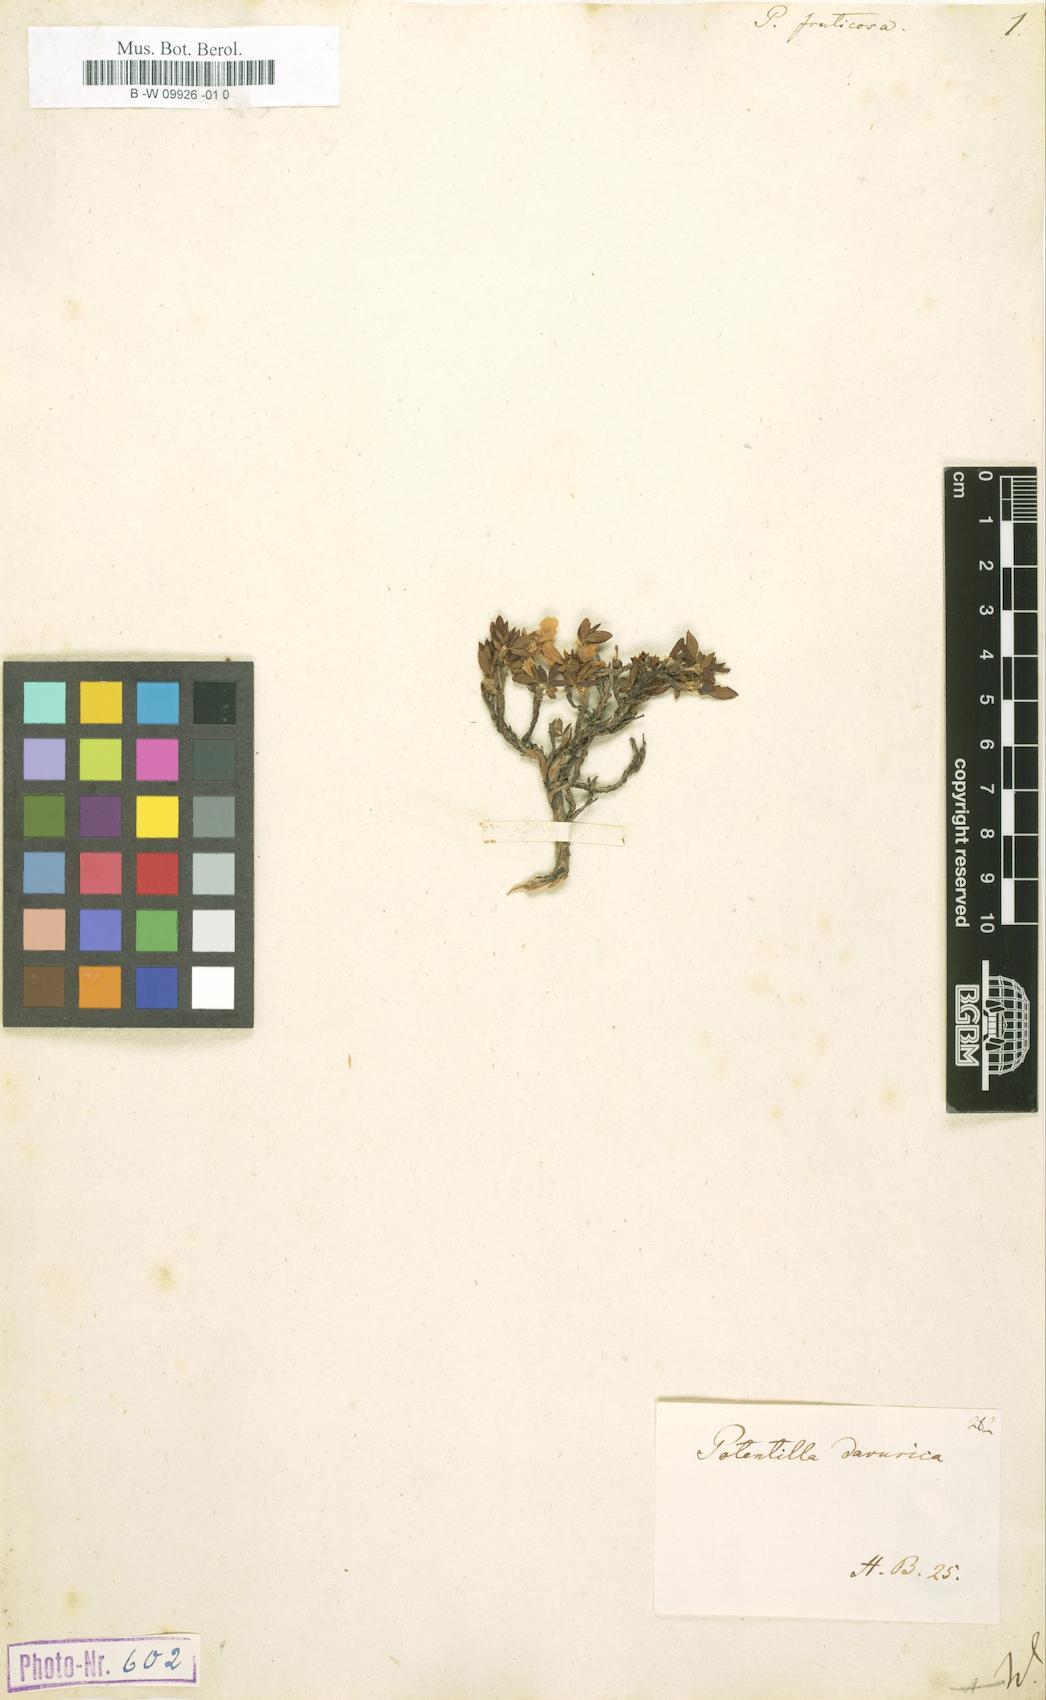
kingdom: Plantae
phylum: Tracheophyta
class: Magnoliopsida
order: Rosales
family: Rosaceae
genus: Dasiphora
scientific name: Dasiphora fruticosa
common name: Shrubby cinquefoil
